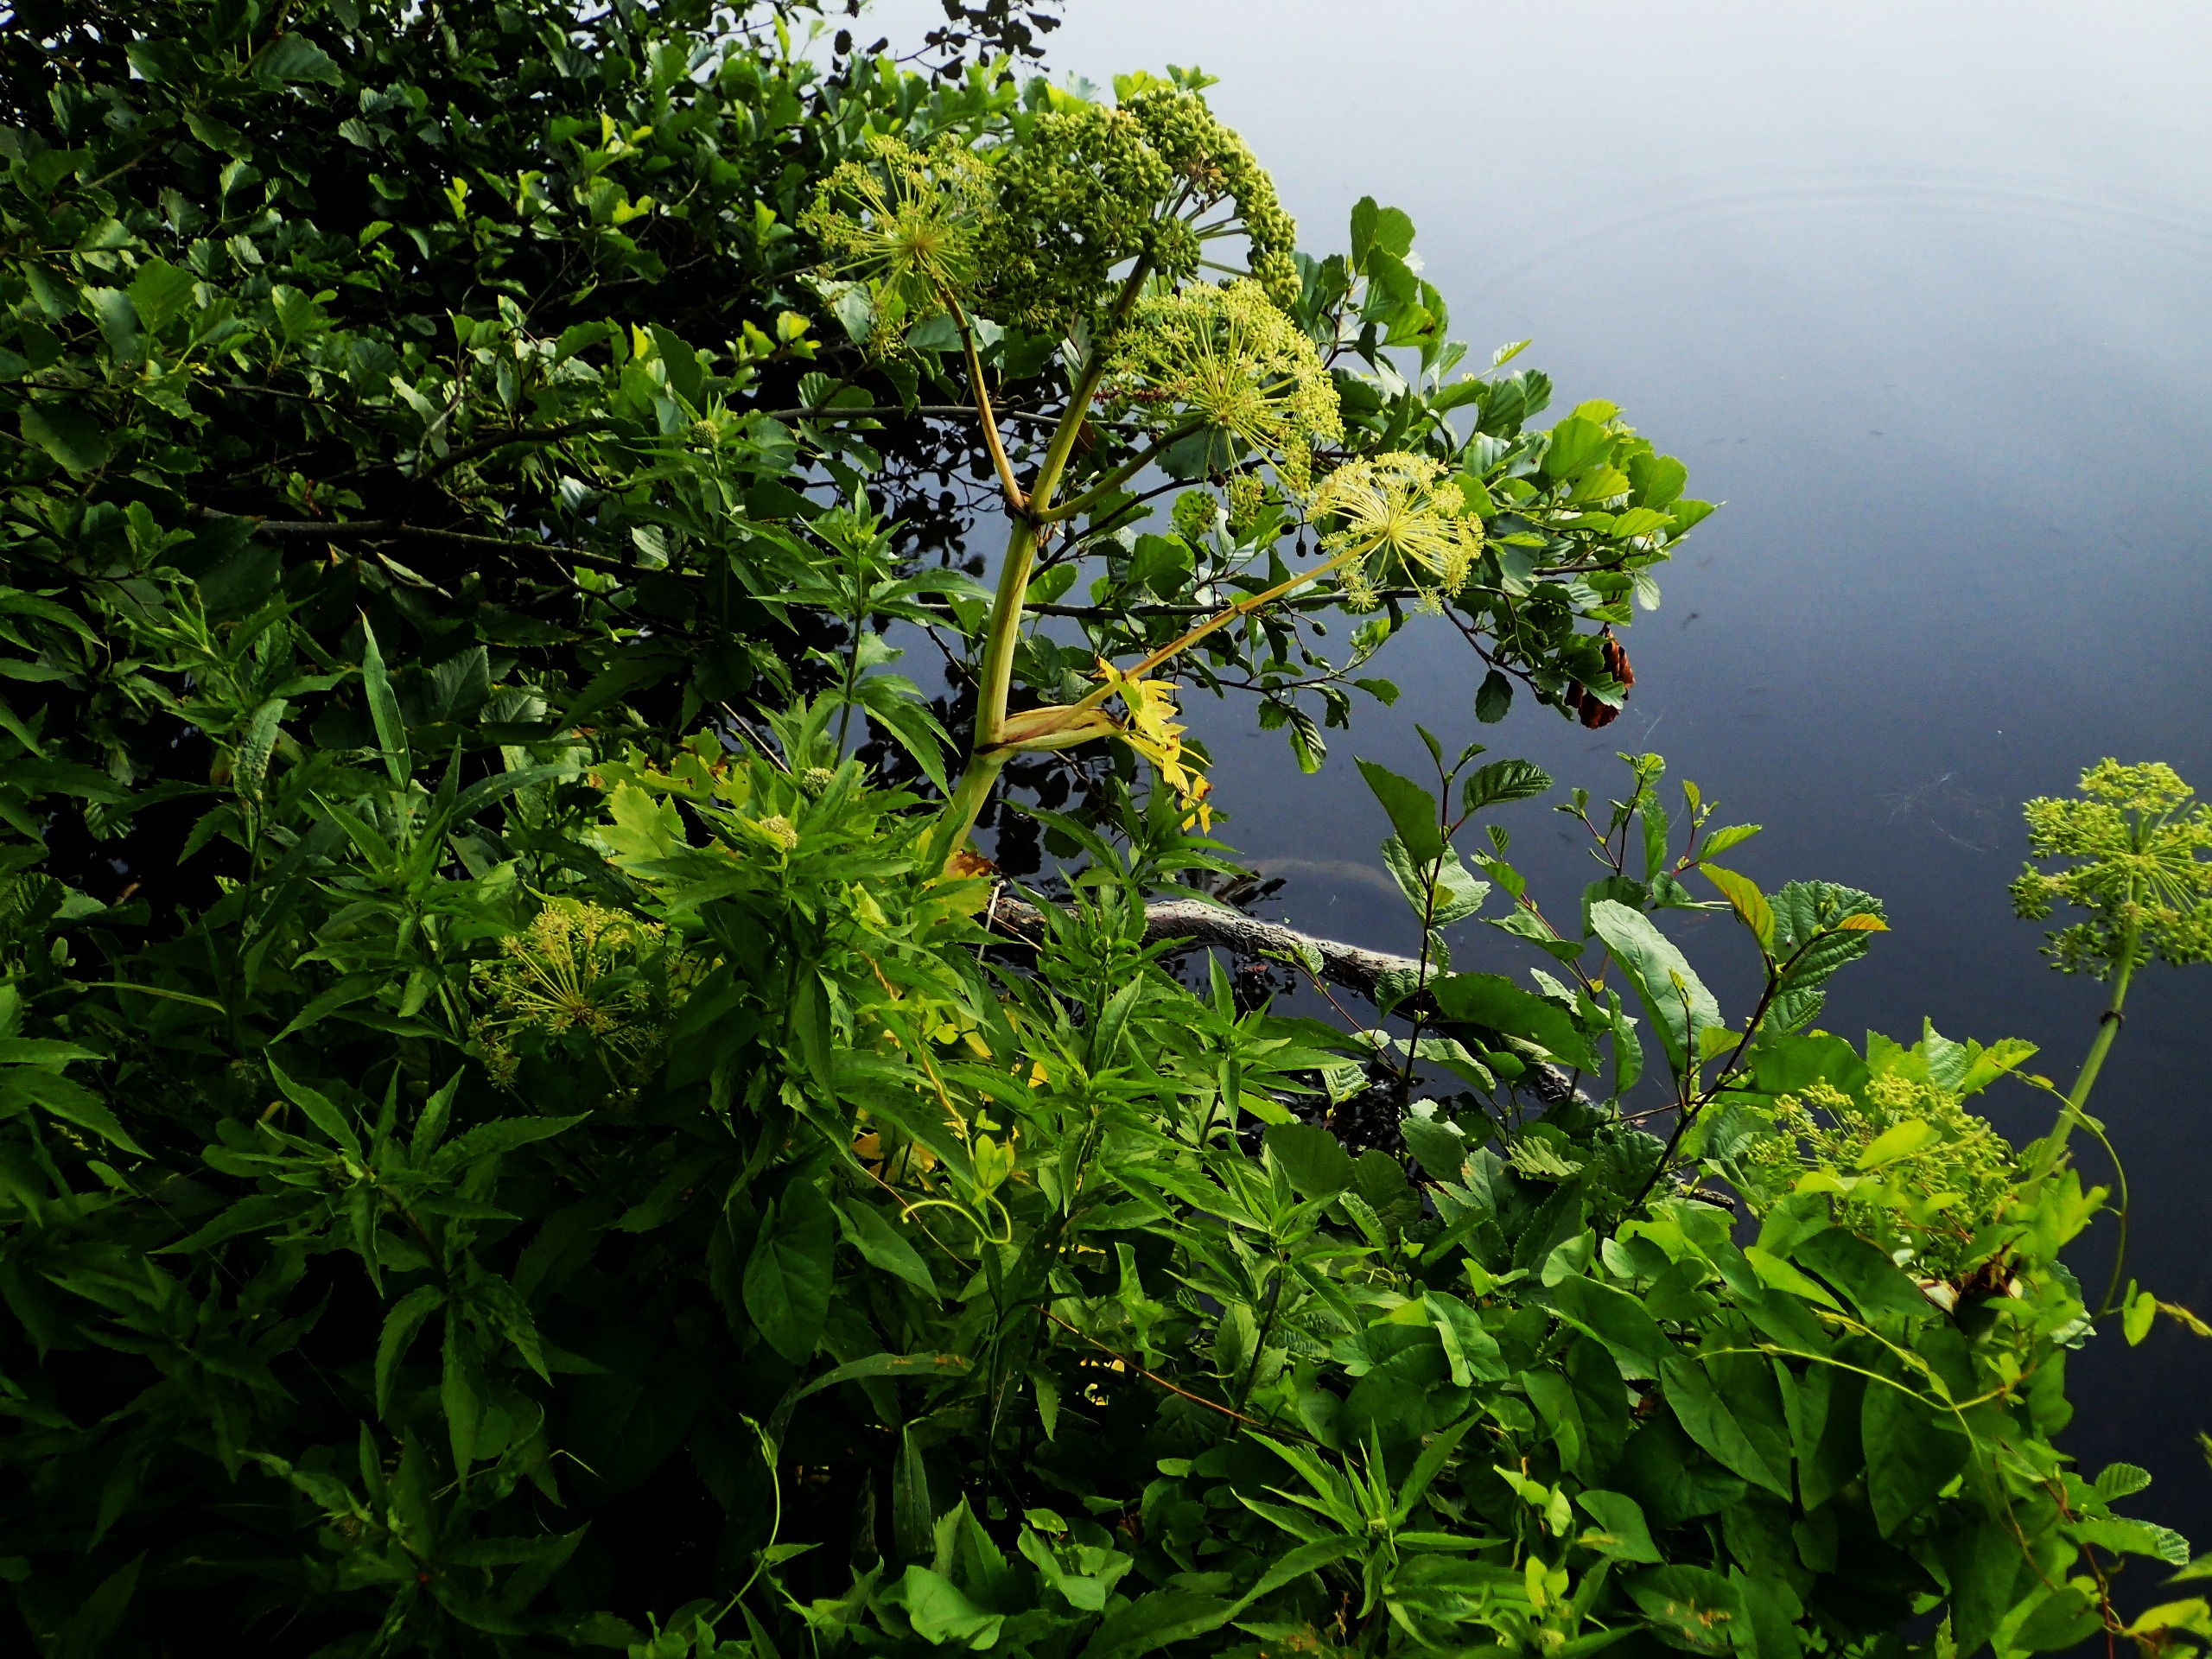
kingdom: Plantae
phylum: Tracheophyta
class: Magnoliopsida
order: Apiales
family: Apiaceae
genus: Angelica
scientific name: Angelica archangelica
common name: Kvan
